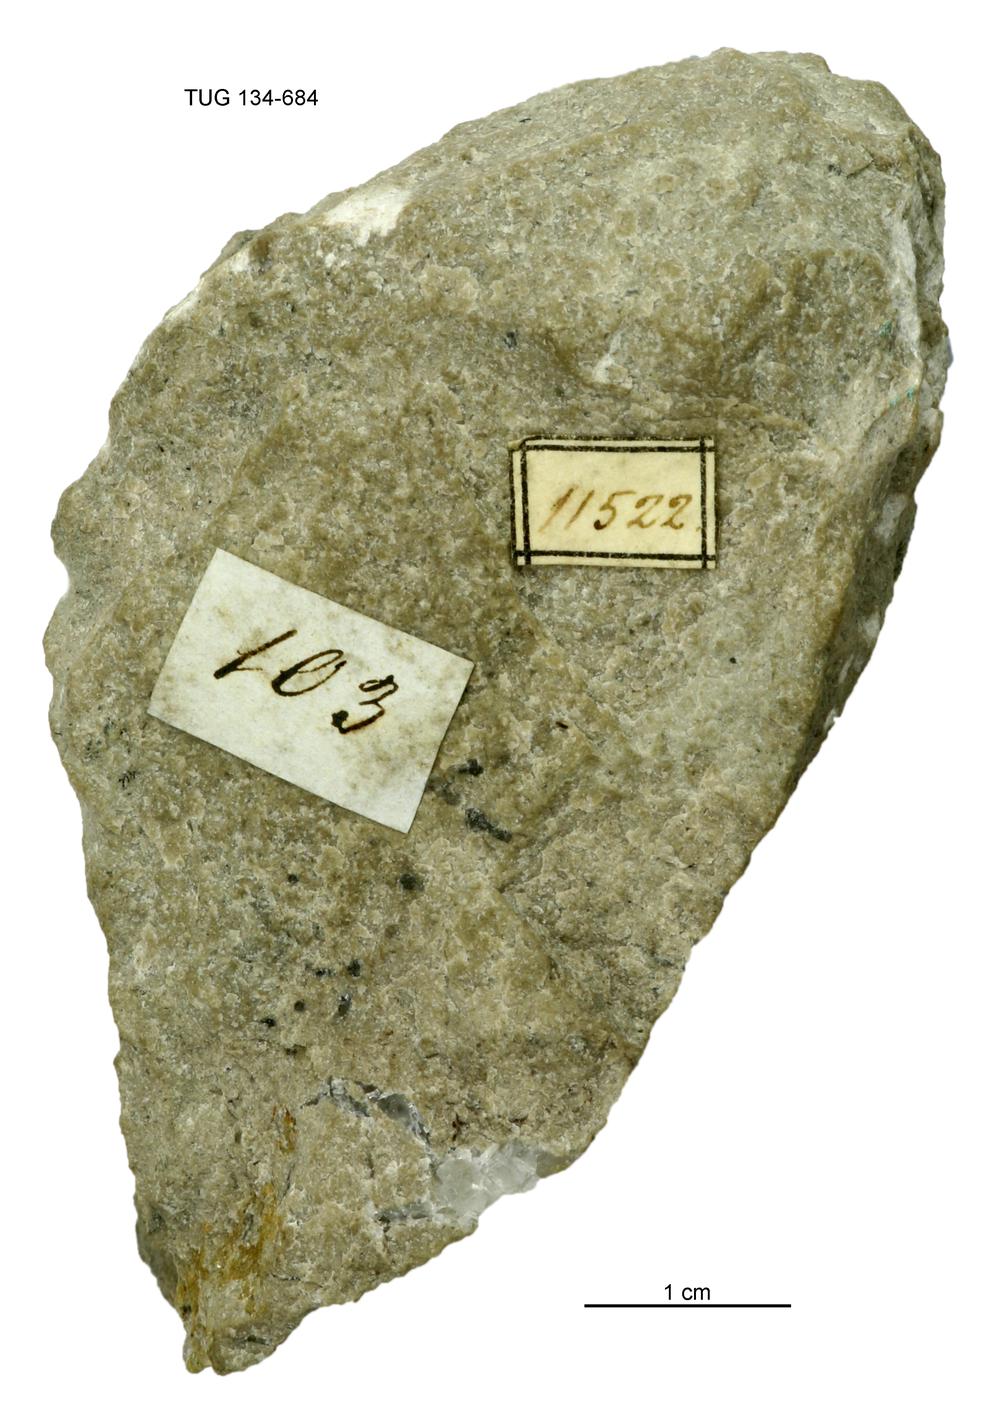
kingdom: Animalia
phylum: Cnidaria
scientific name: Cnidaria
